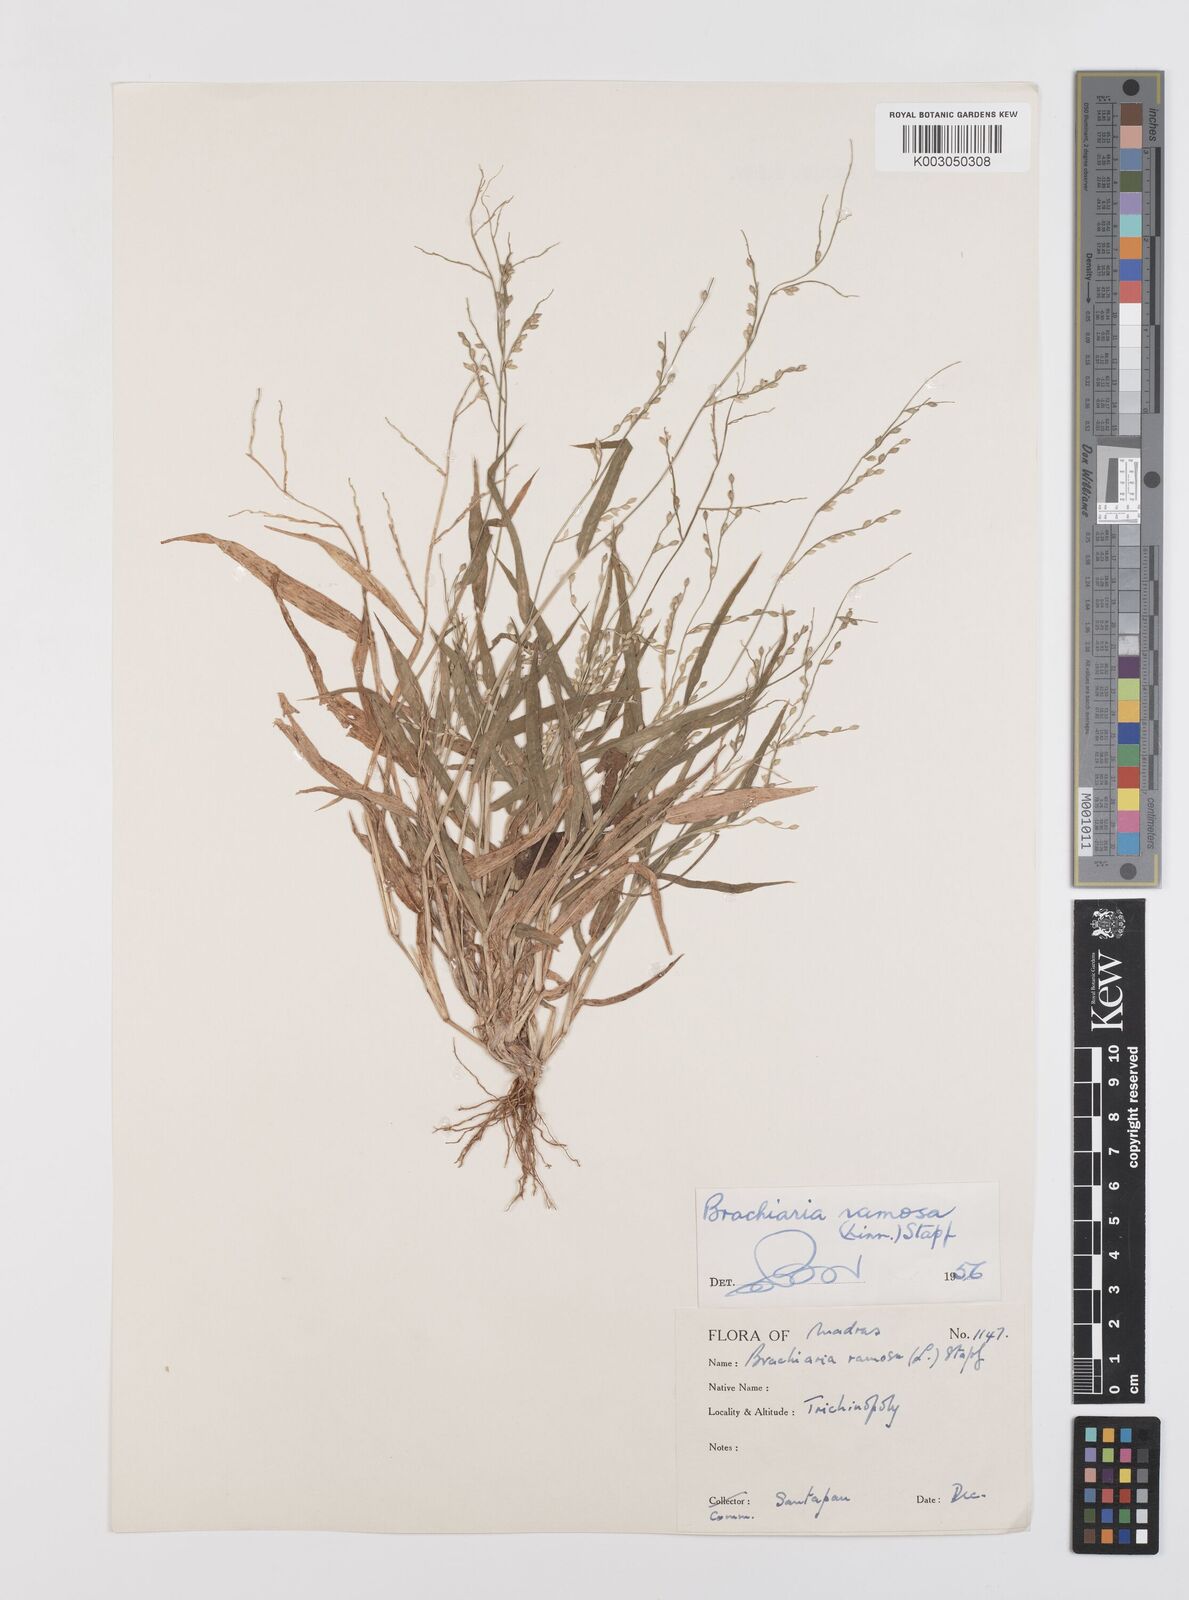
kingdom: Plantae
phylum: Tracheophyta
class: Liliopsida
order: Poales
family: Poaceae
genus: Urochloa
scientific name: Urochloa ramosa
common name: Browntop millet
